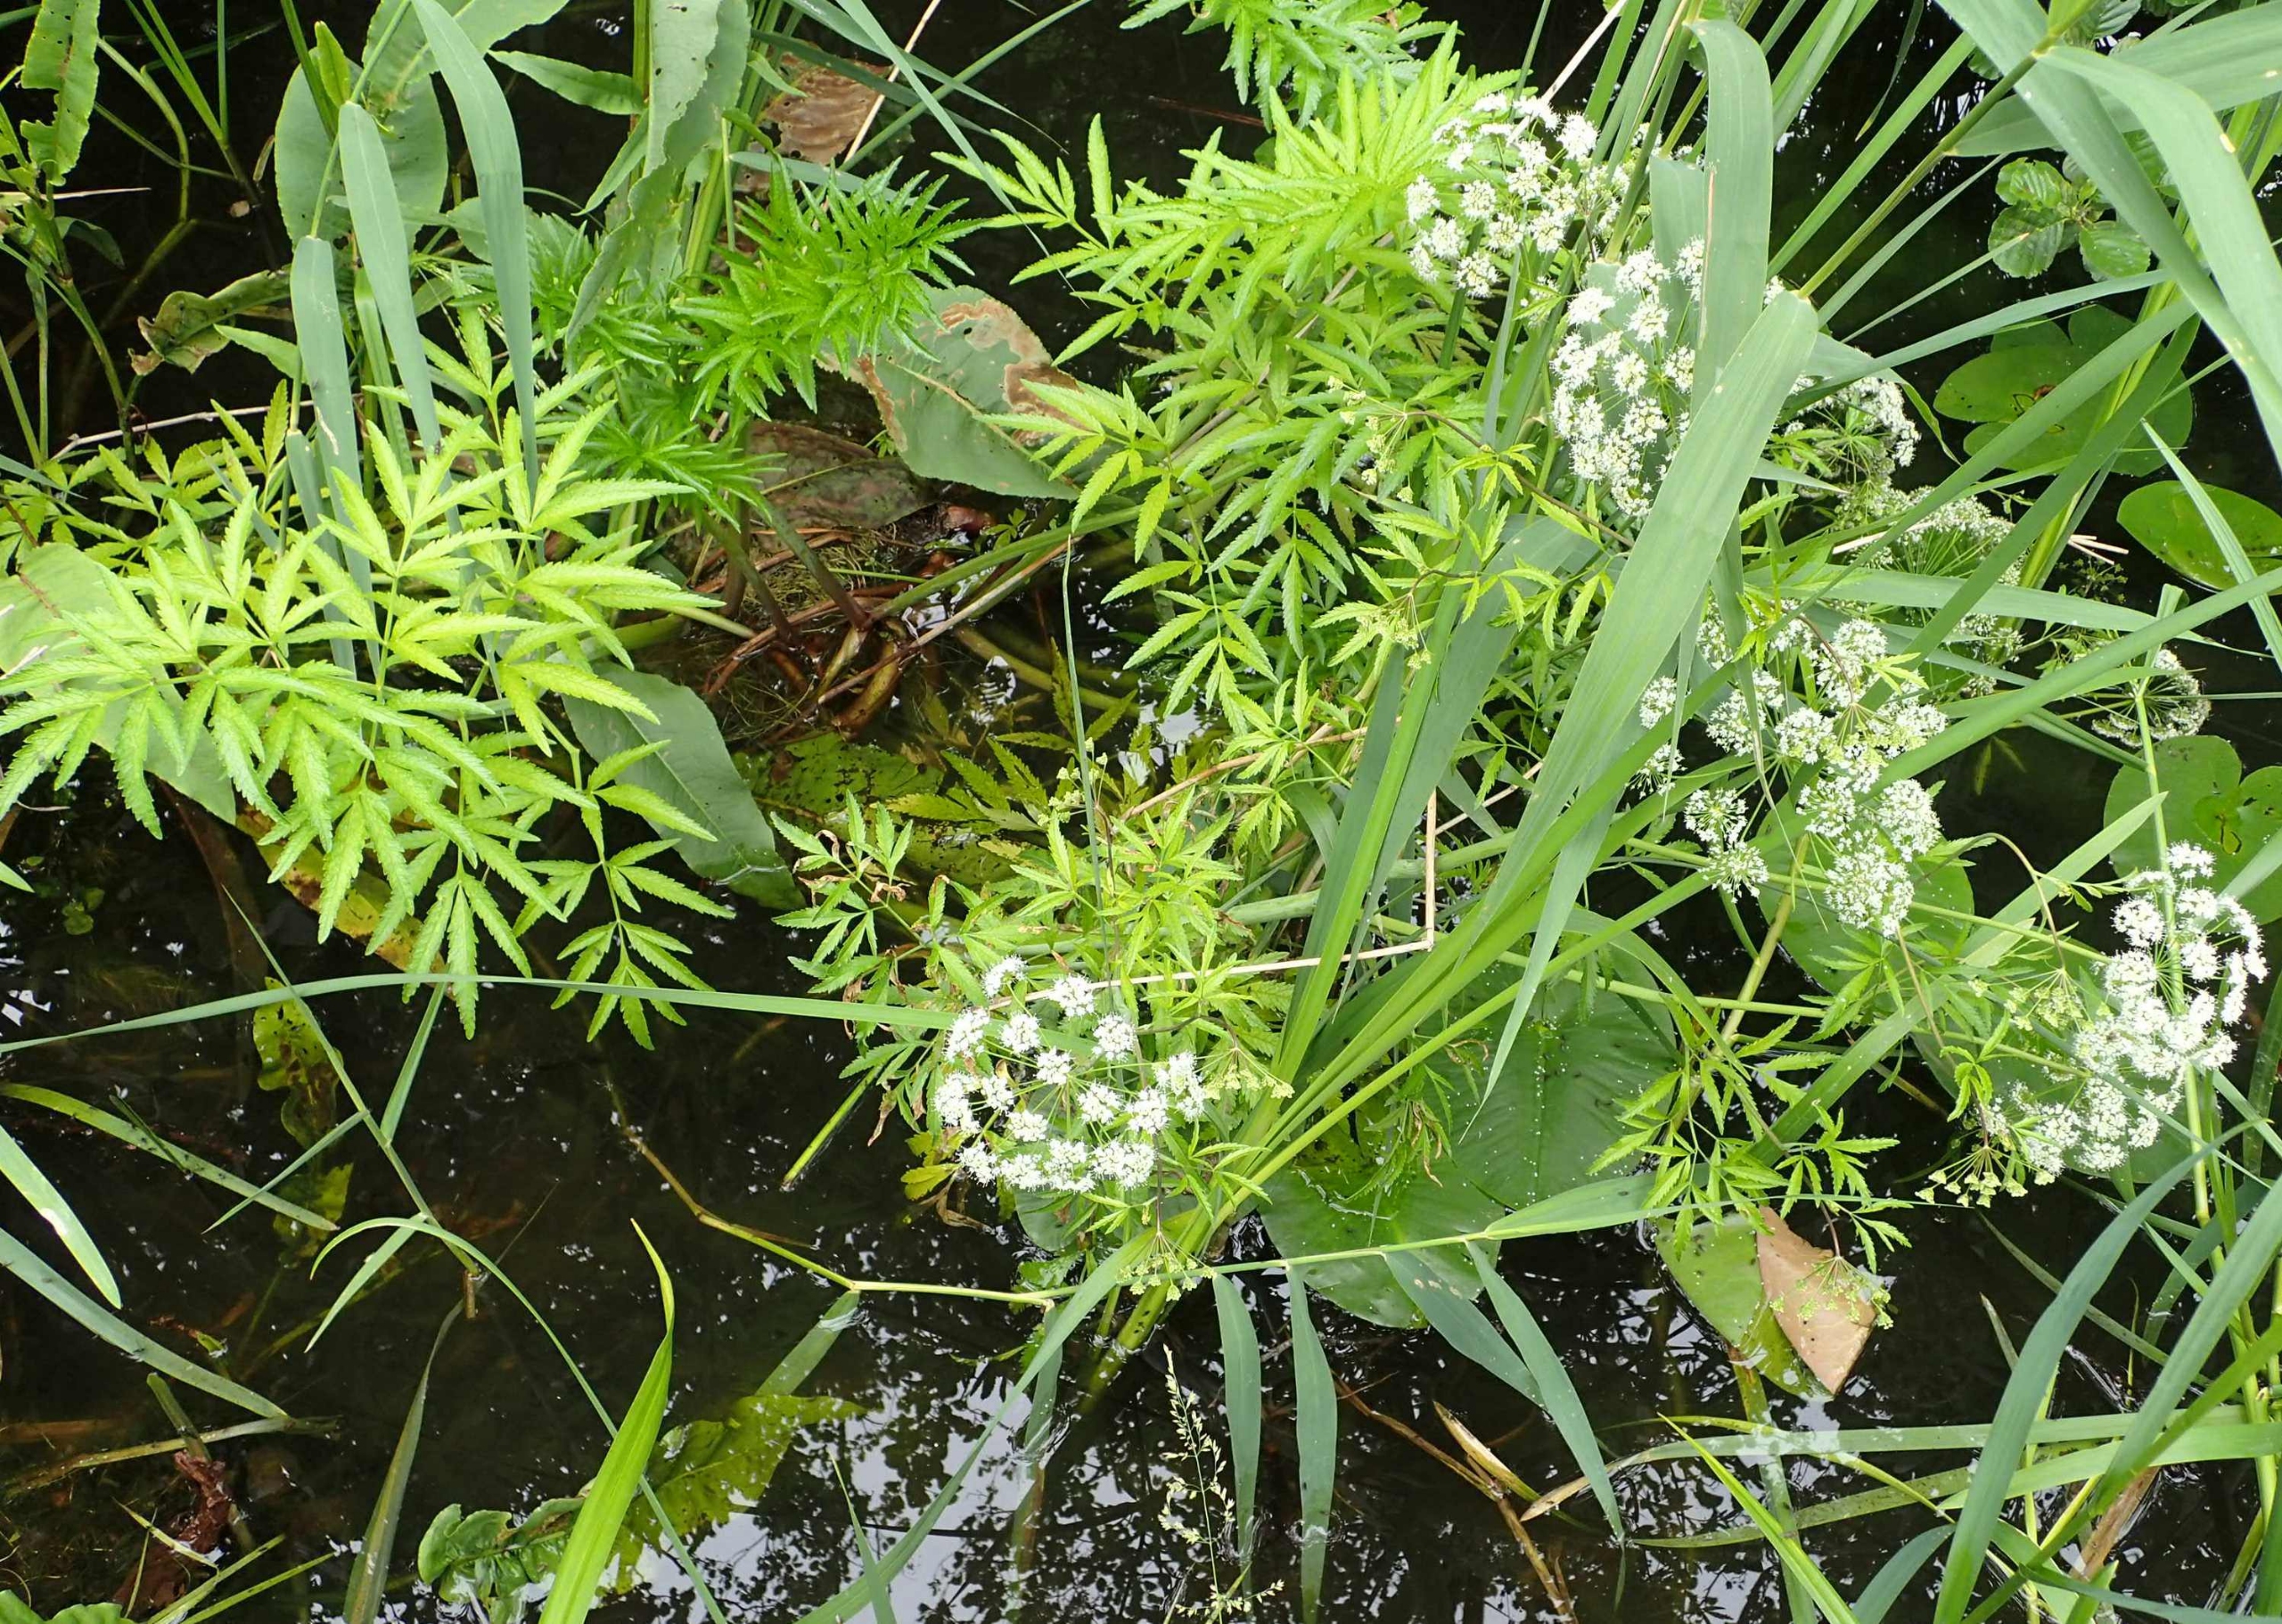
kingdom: Plantae
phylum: Tracheophyta
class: Magnoliopsida
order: Apiales
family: Apiaceae
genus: Cicuta
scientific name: Cicuta virosa
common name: Gifttyde
